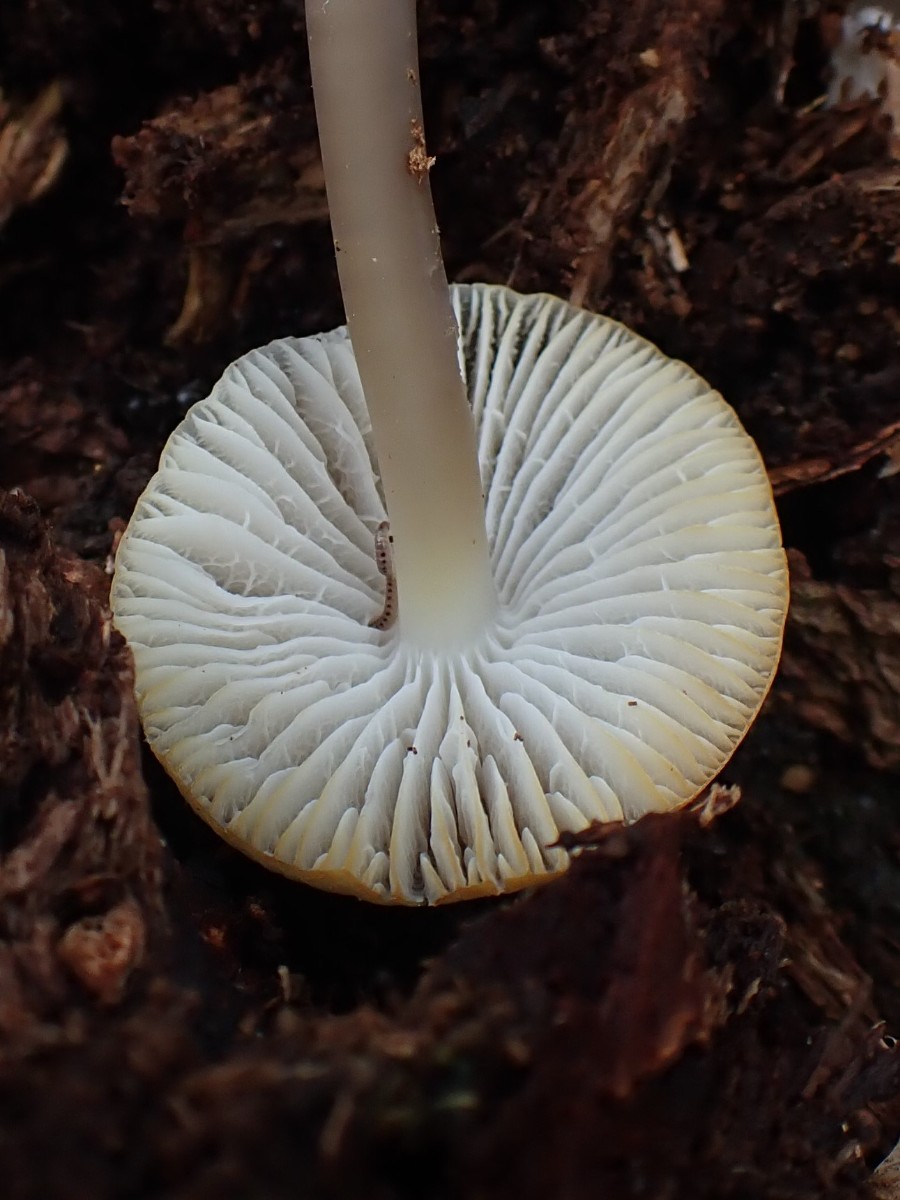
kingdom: Fungi
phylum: Basidiomycota
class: Agaricomycetes
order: Agaricales
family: Mycenaceae
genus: Mycena
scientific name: Mycena galericulata
